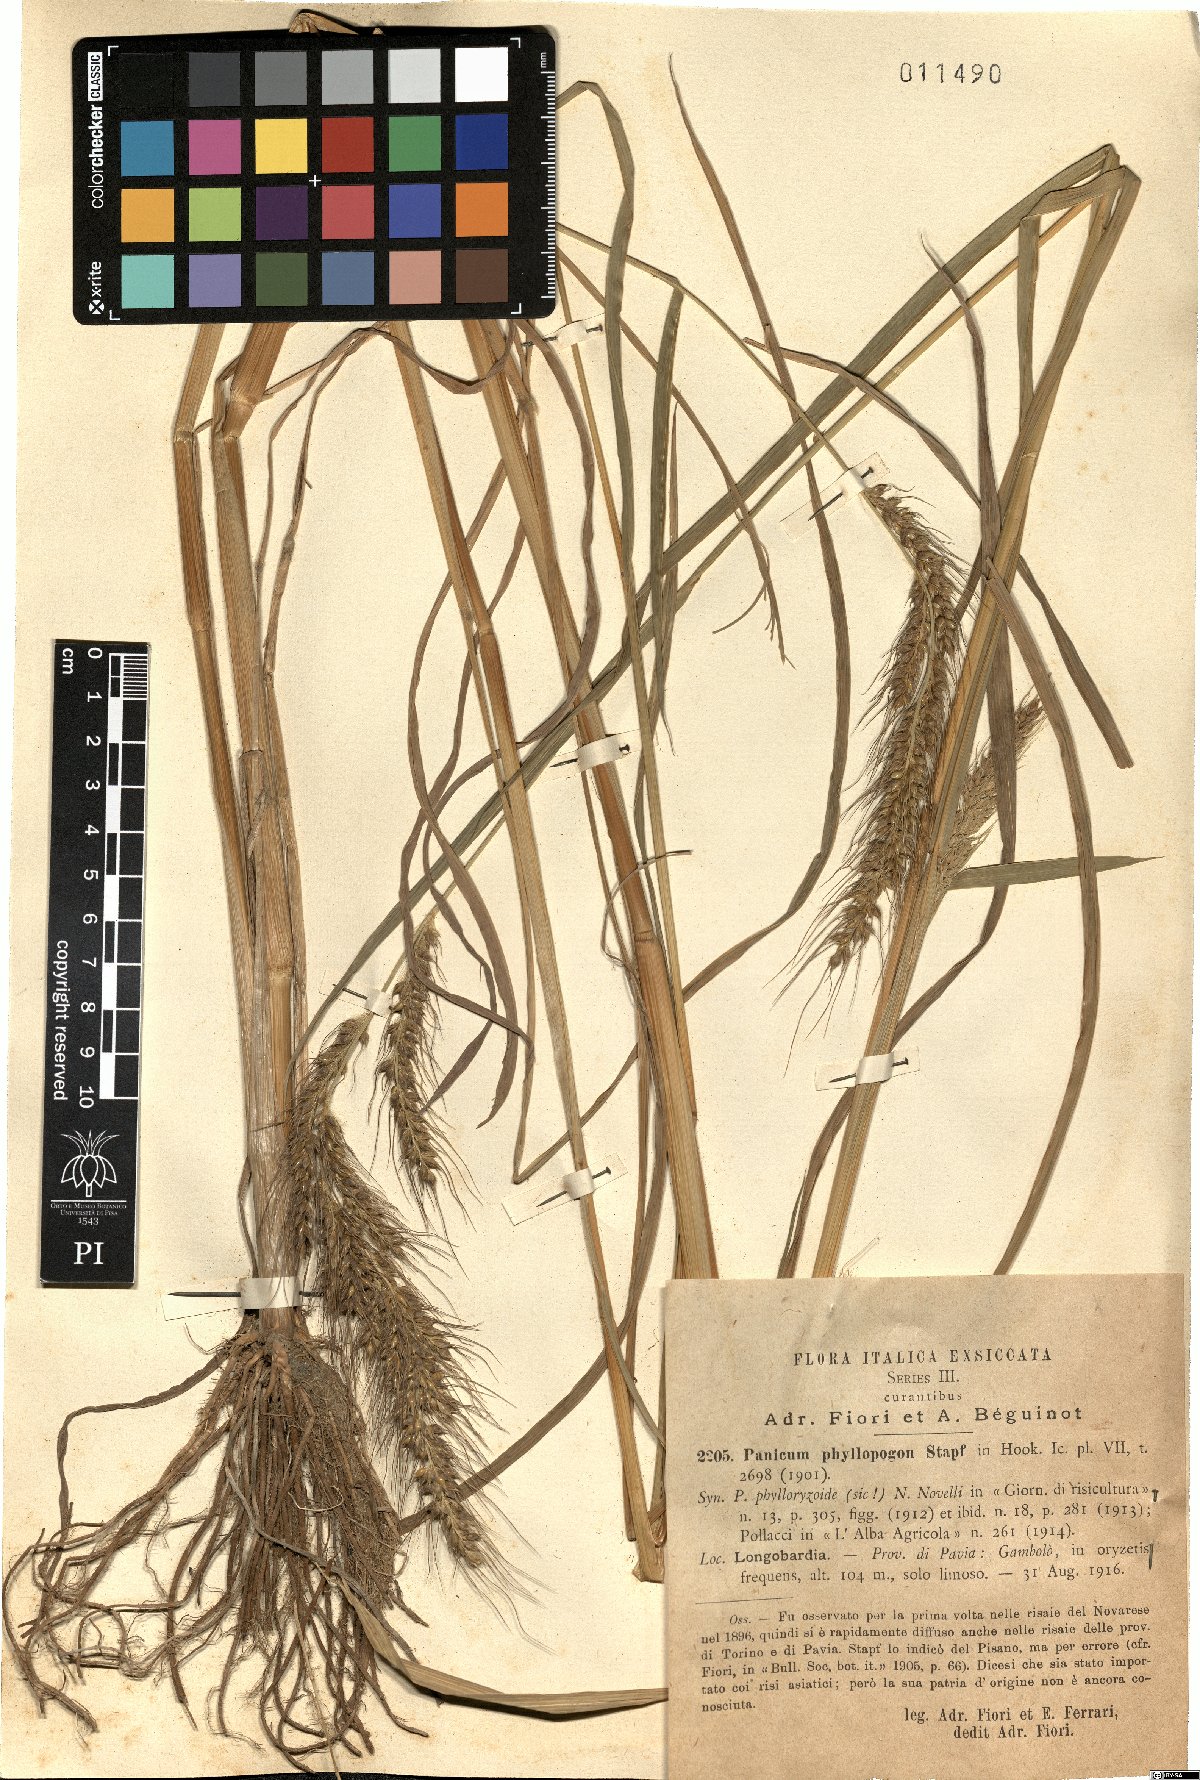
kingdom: Plantae
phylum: Tracheophyta
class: Liliopsida
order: Poales
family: Poaceae
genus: Echinochloa
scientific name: Echinochloa oryzoides
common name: Early water grass
